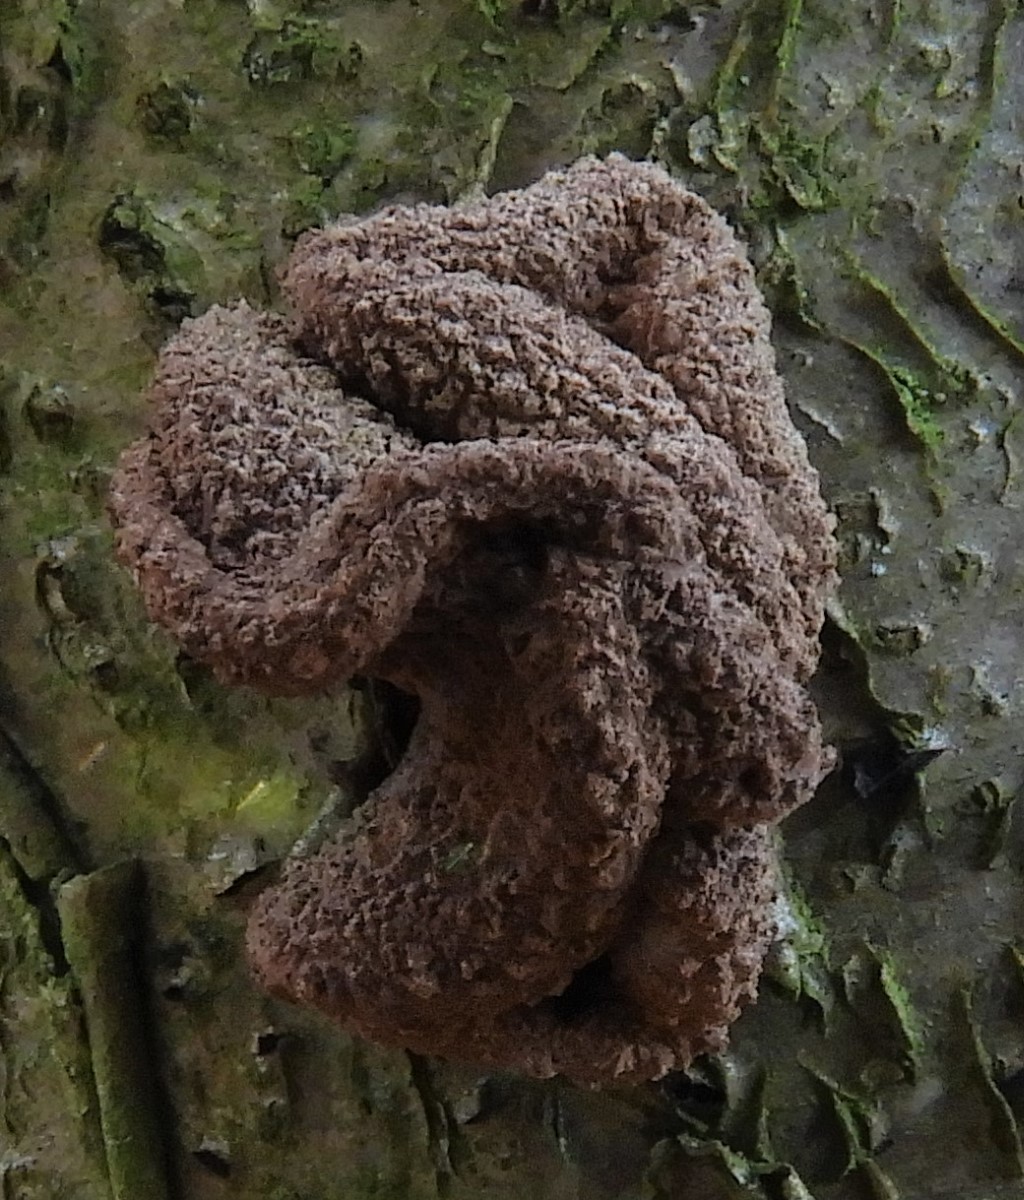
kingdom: Fungi
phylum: Ascomycota
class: Leotiomycetes
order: Helotiales
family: Cenangiaceae
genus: Encoelia
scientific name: Encoelia furfuracea
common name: hassel-læderskive
